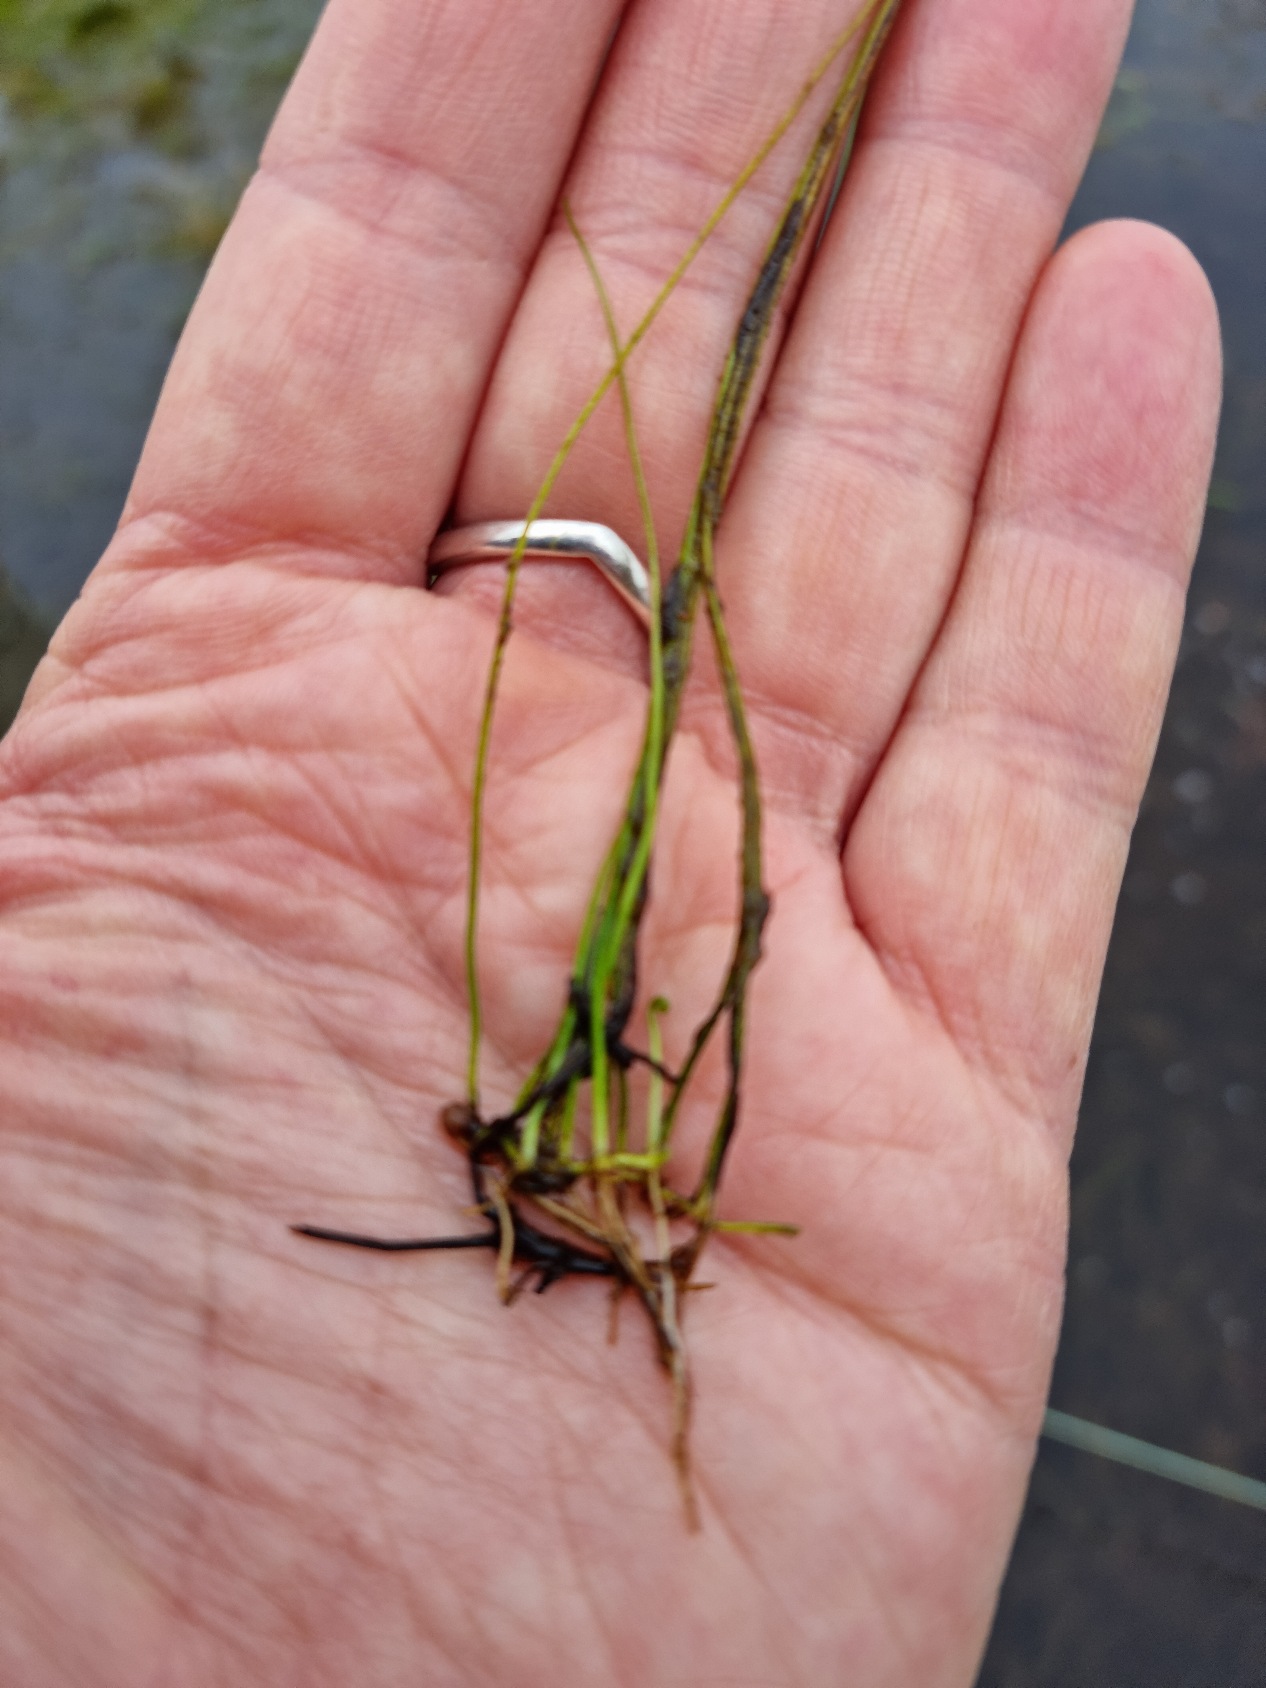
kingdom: Plantae
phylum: Tracheophyta
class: Polypodiopsida
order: Salviniales
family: Marsileaceae
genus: Pilularia
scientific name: Pilularia globulifera
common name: Pilledrager
